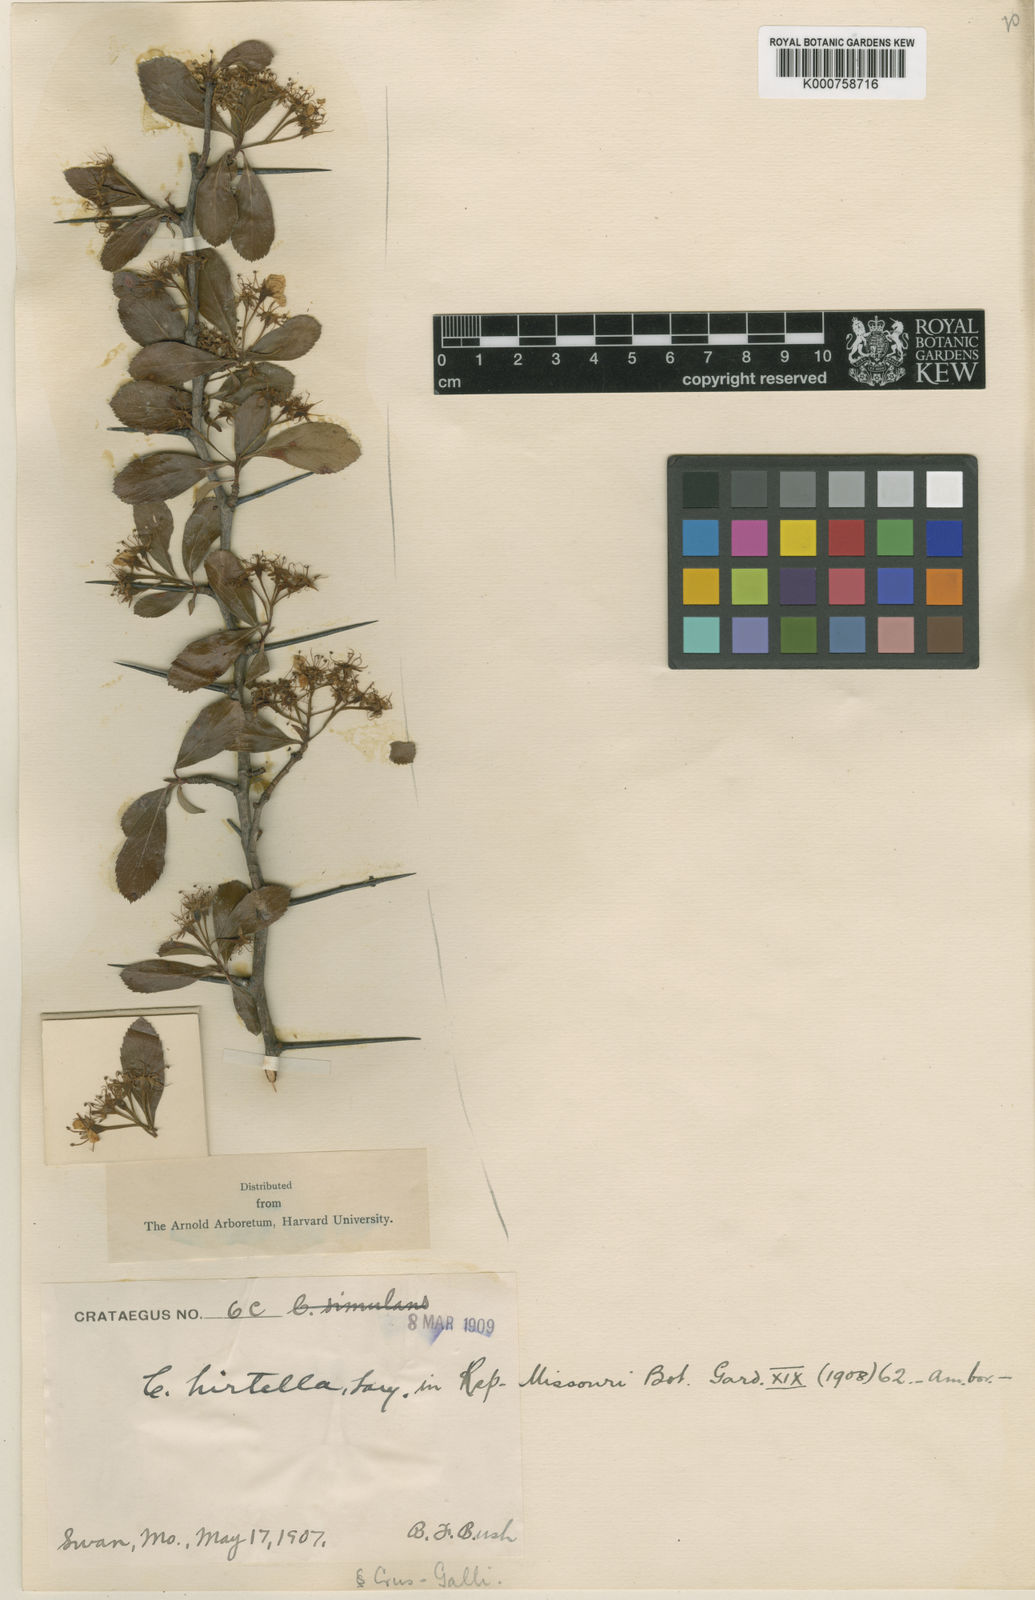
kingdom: Plantae
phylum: Tracheophyta
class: Magnoliopsida
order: Rosales
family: Rosaceae
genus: Crataegus
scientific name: Crataegus hirtella
